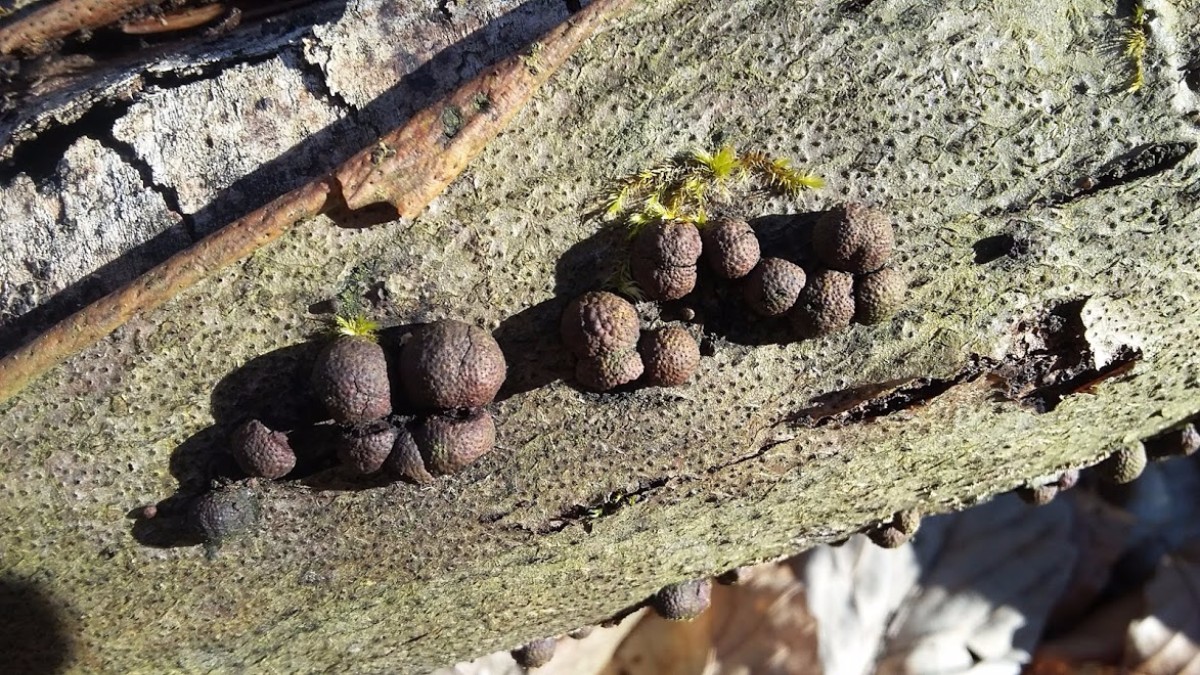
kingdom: Fungi
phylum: Ascomycota
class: Sordariomycetes
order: Xylariales
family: Hypoxylaceae
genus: Hypoxylon
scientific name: Hypoxylon fragiforme
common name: kuljordbær
